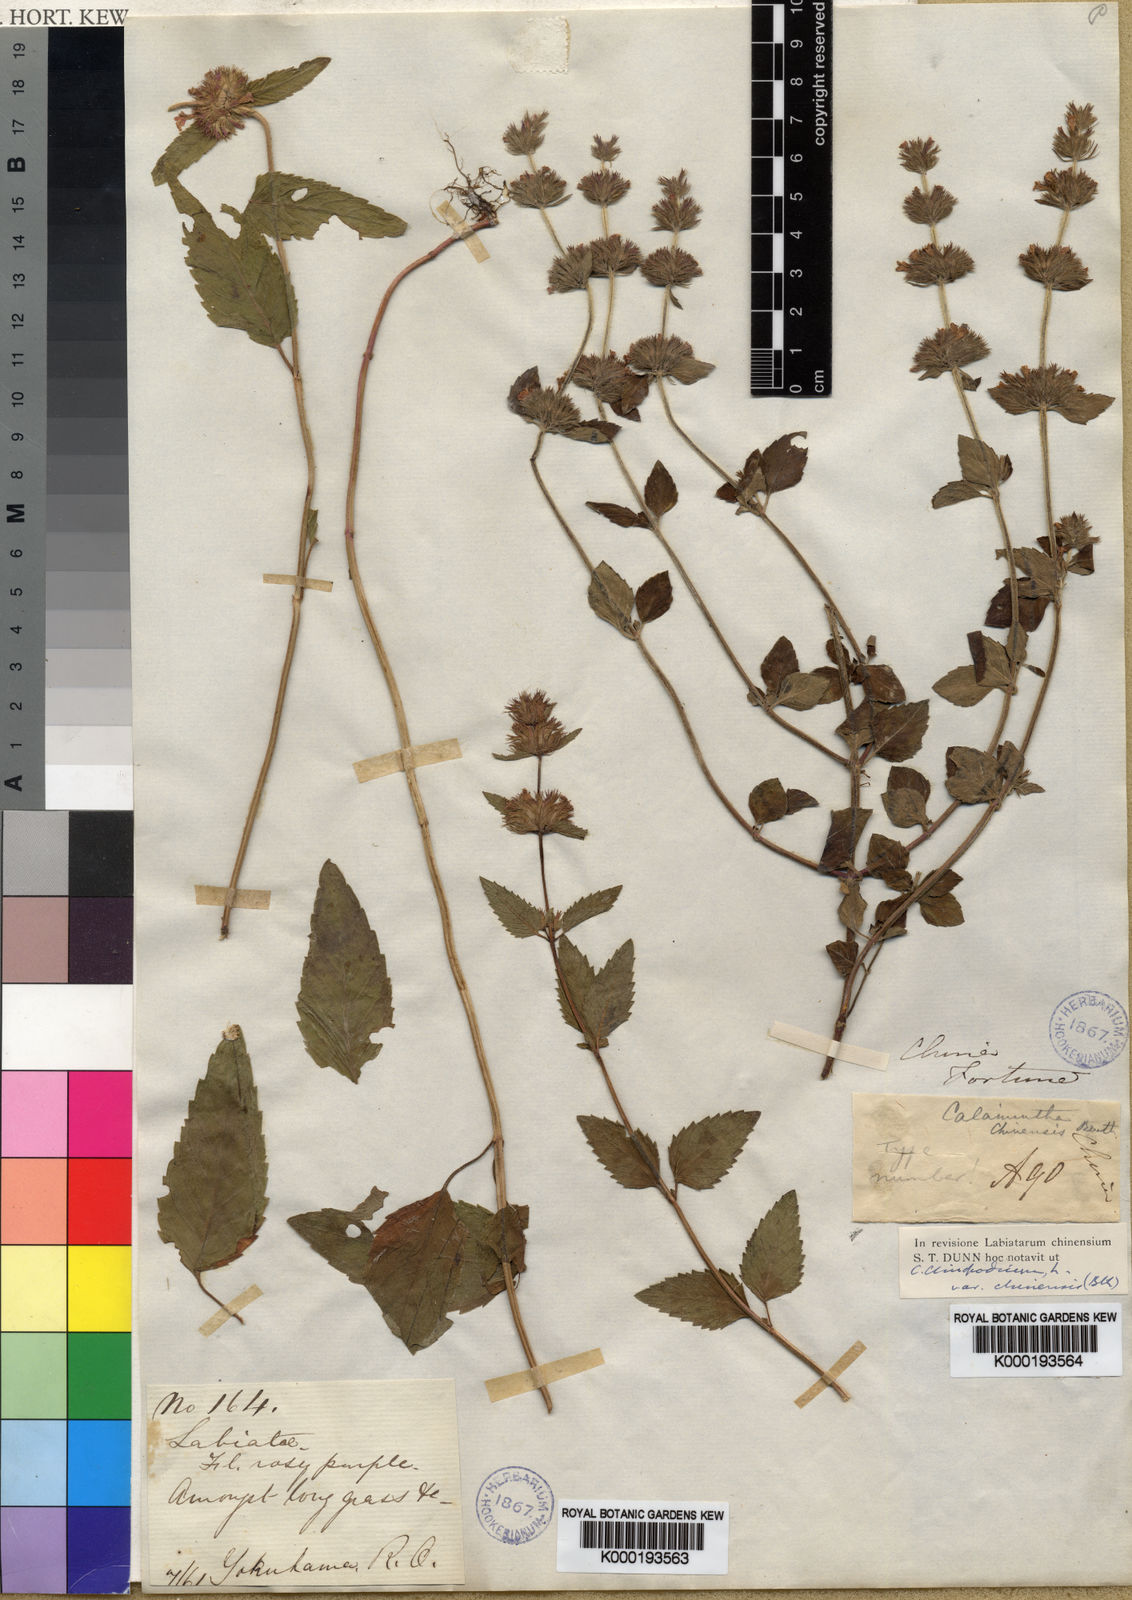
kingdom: Plantae
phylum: Tracheophyta
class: Magnoliopsida
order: Lamiales
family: Lamiaceae
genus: Clinopodium
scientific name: Clinopodium chinense
